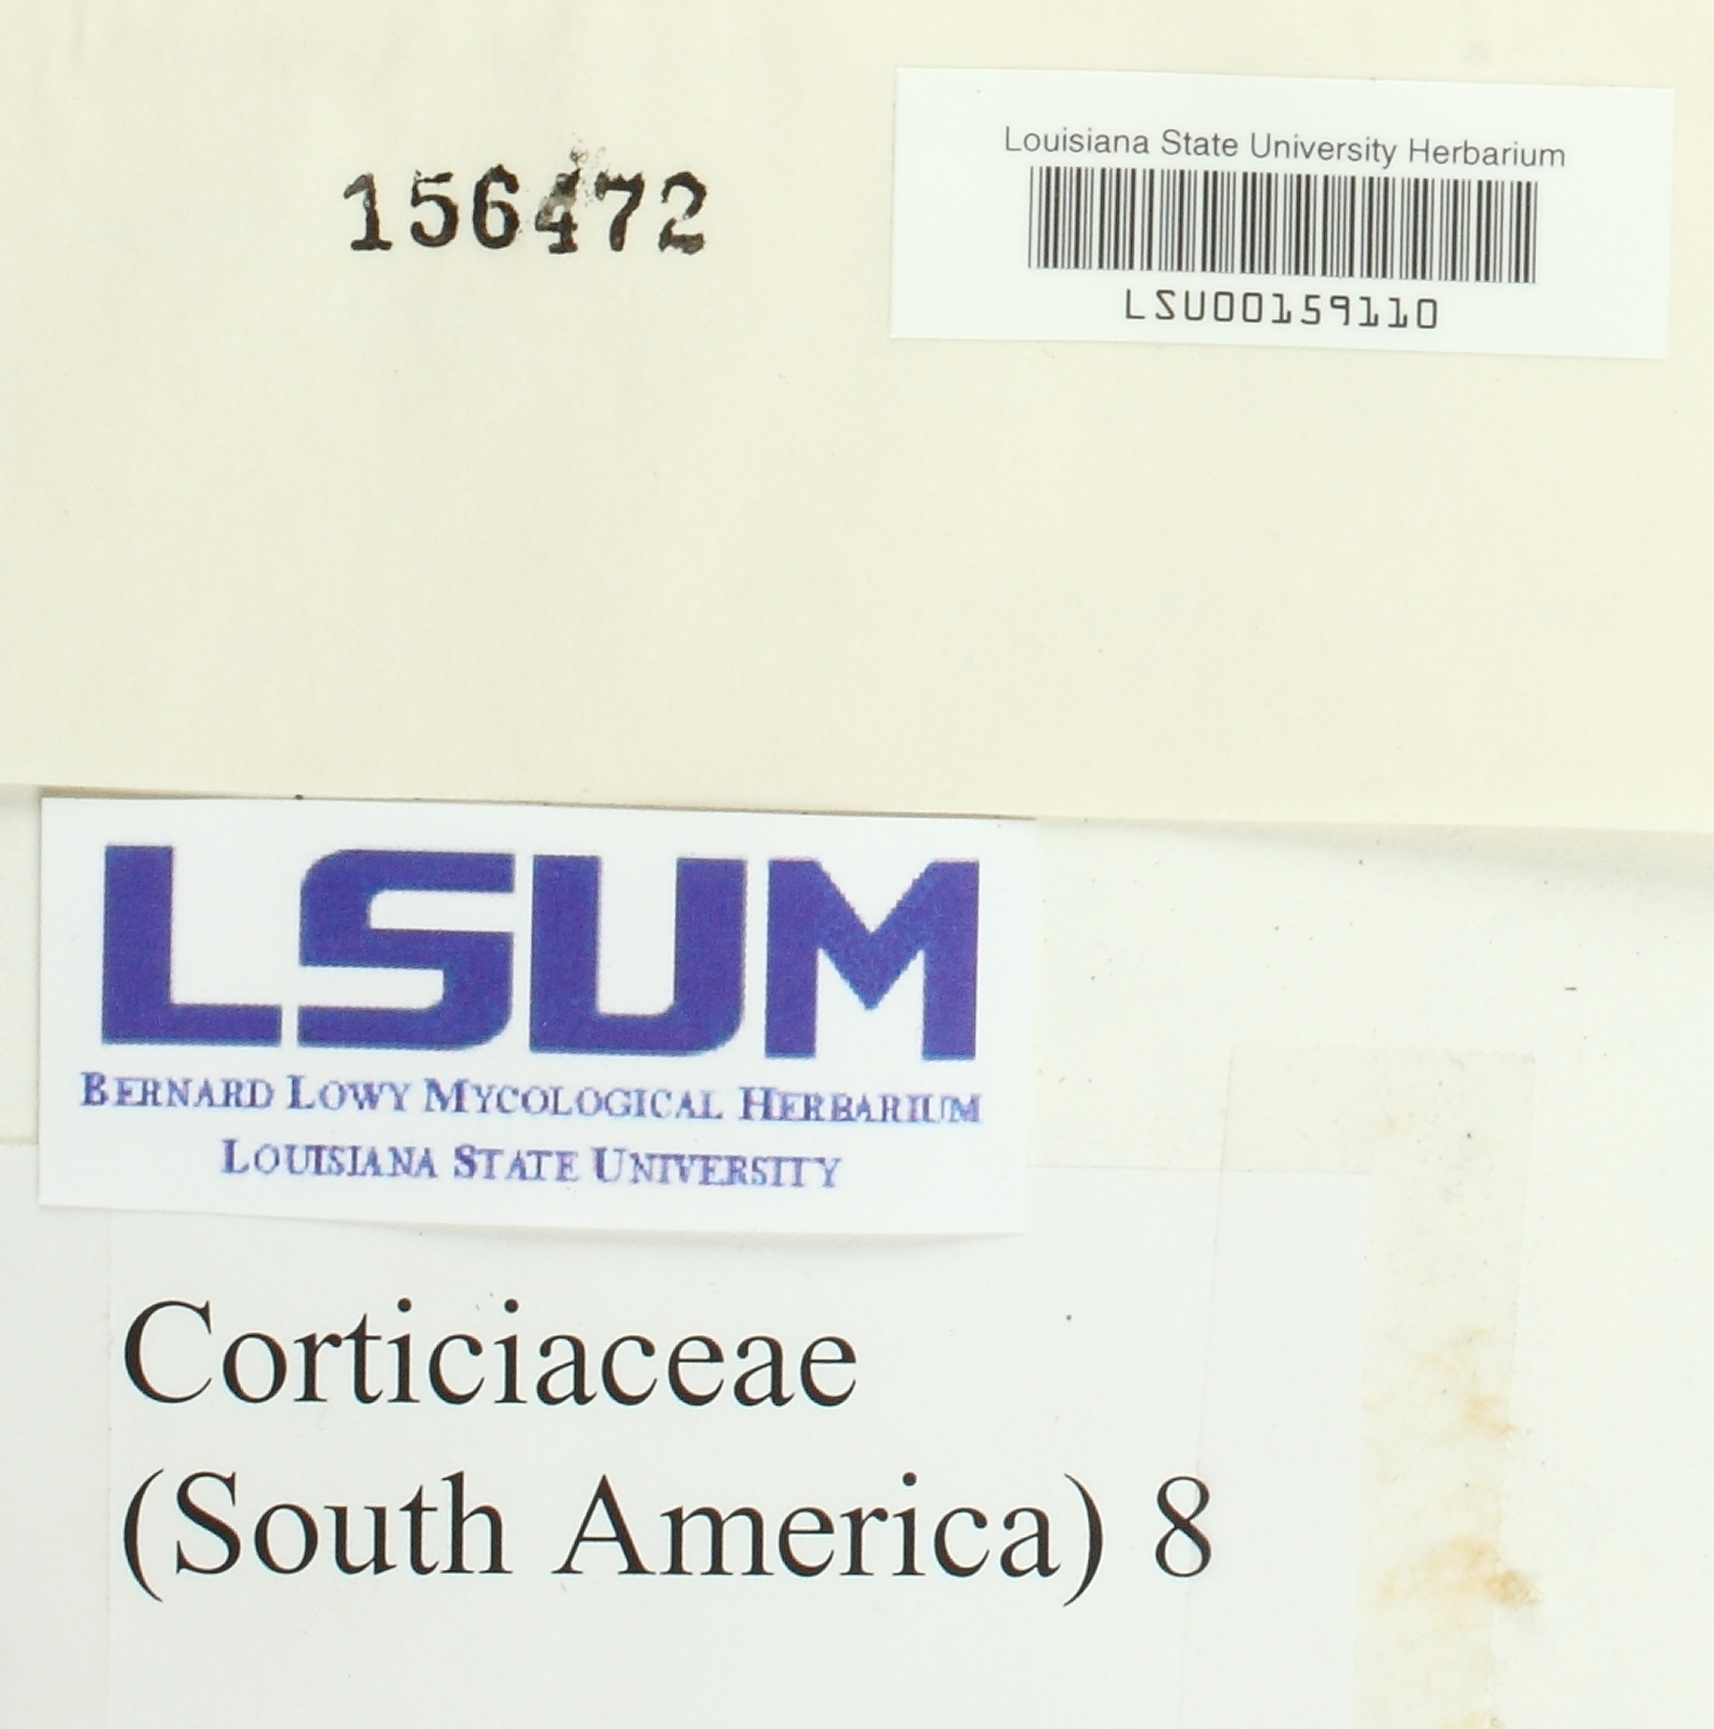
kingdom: Fungi
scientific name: Fungi
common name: Fungi
